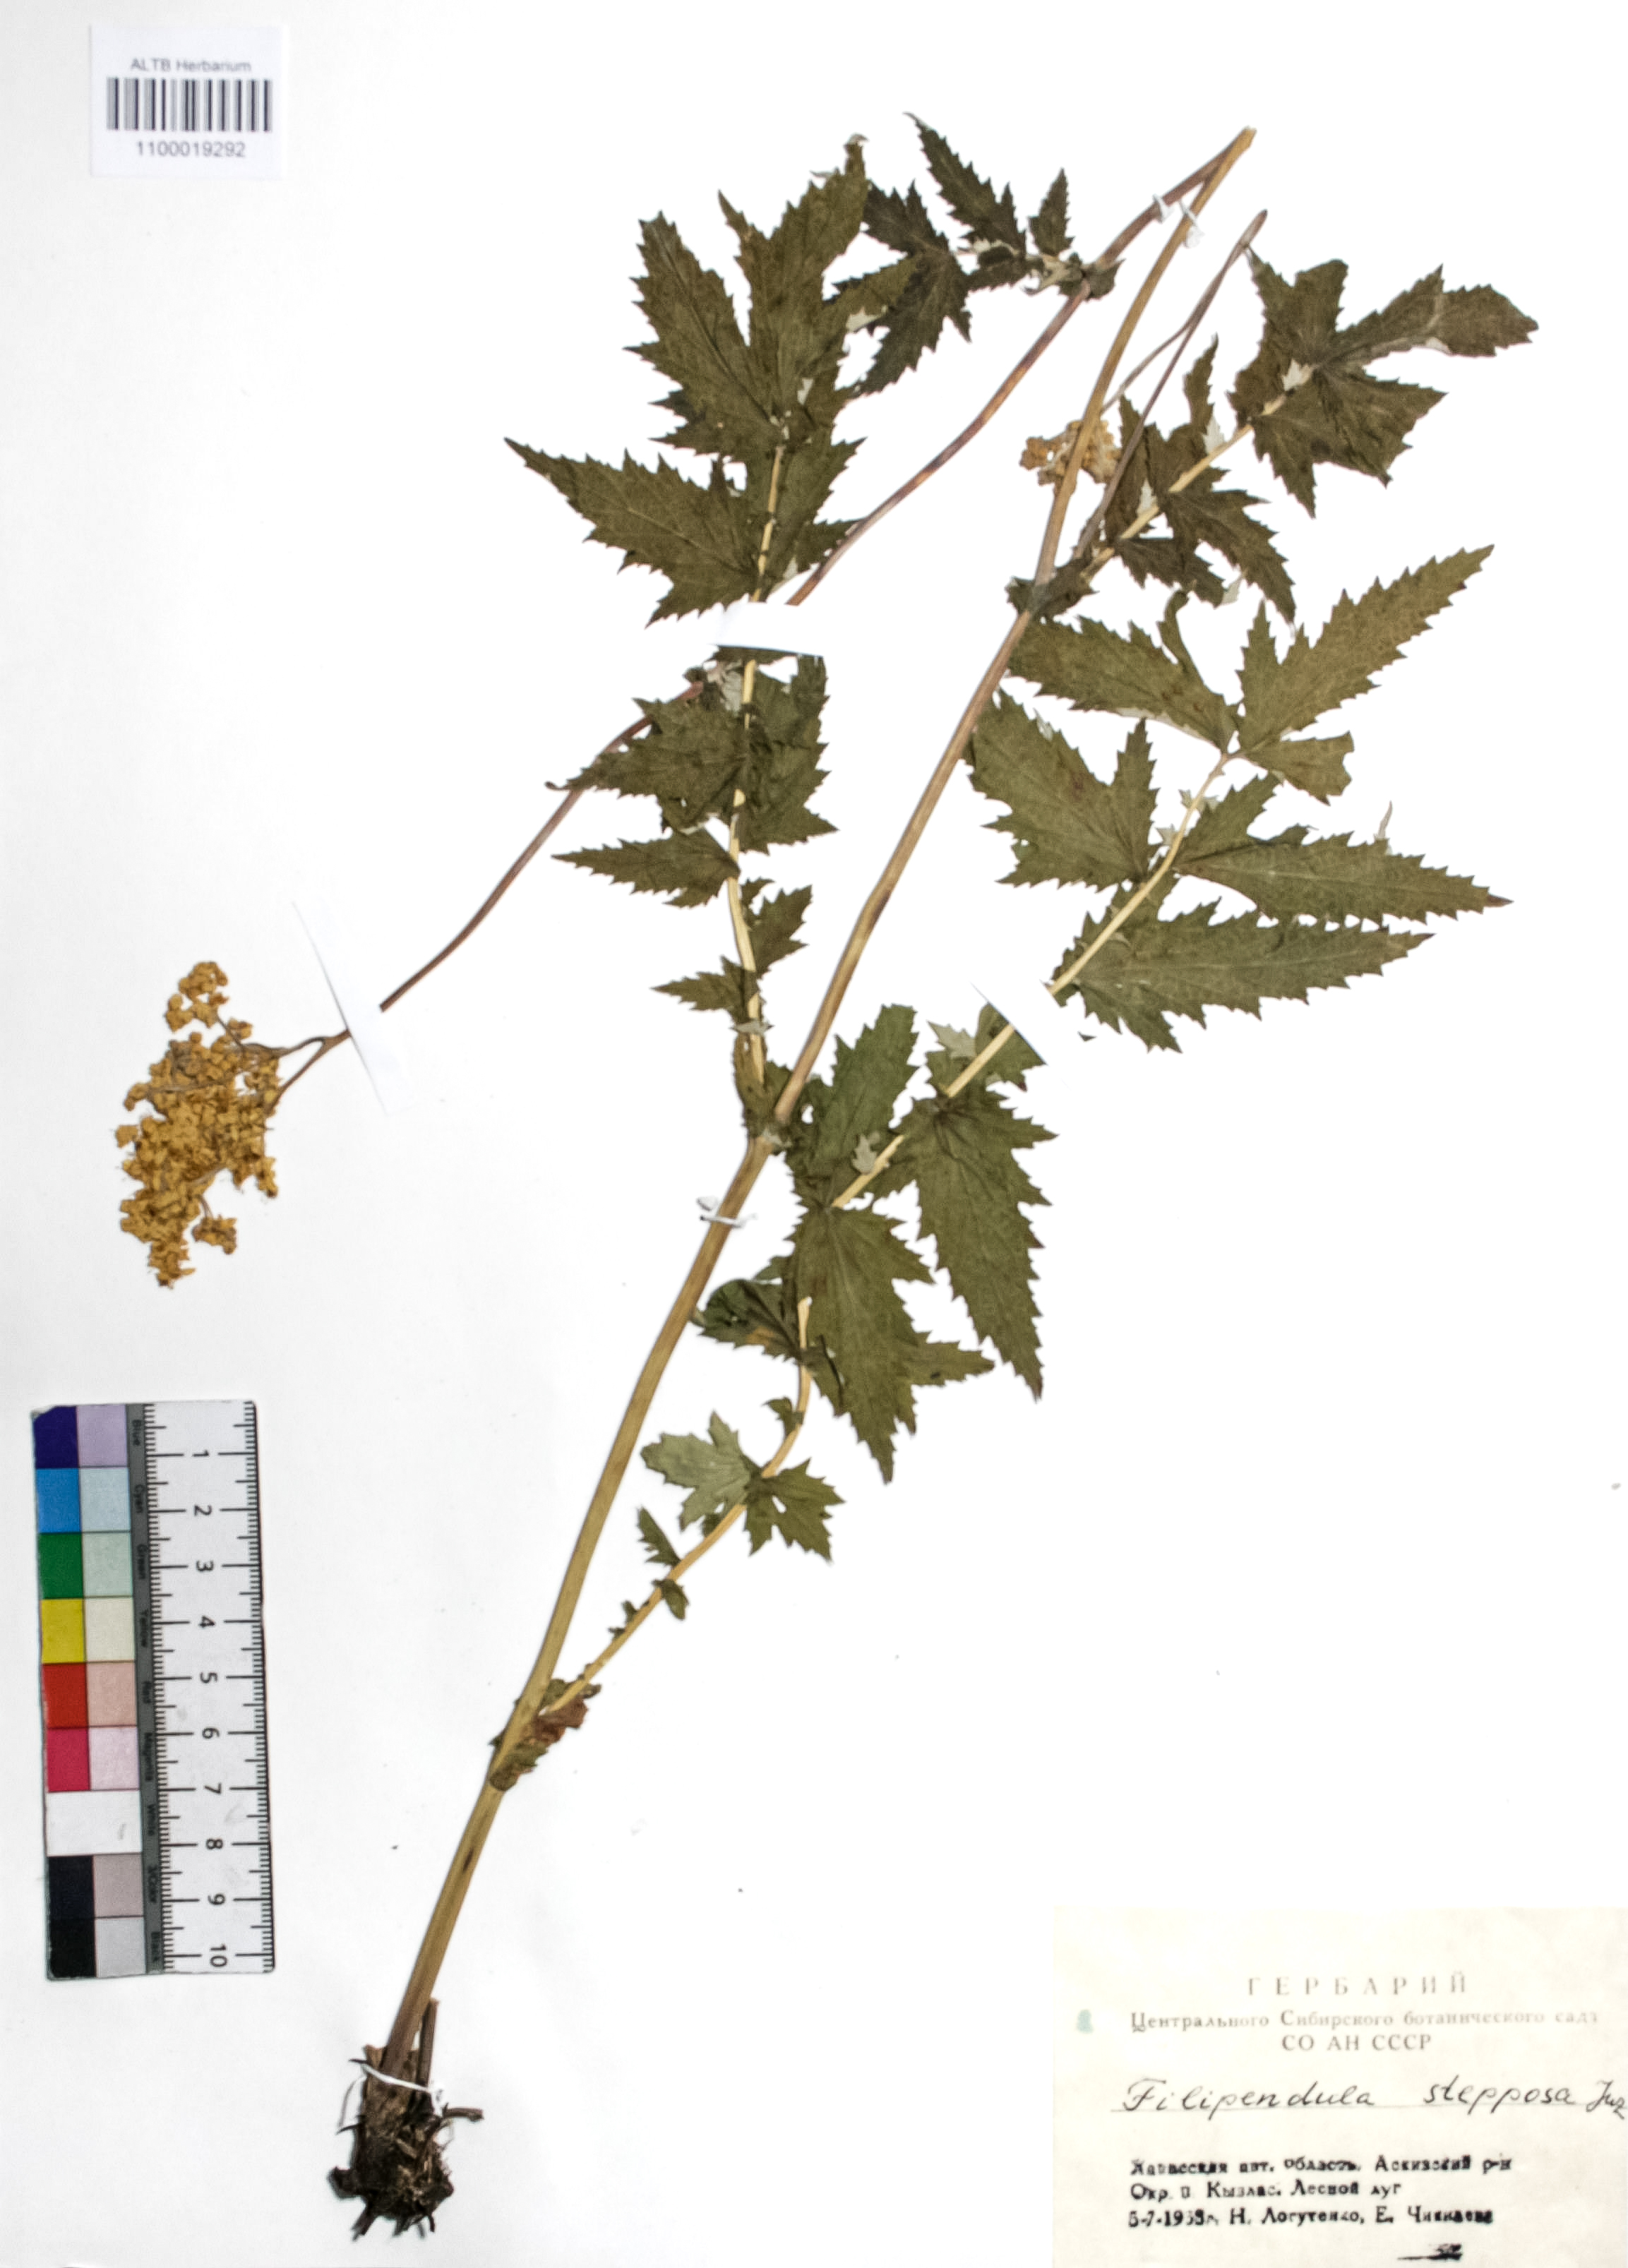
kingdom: Plantae
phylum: Tracheophyta
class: Magnoliopsida
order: Rosales
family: Rosaceae
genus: Filipendula
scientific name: Filipendula ulmaria
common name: Meadowsweet
